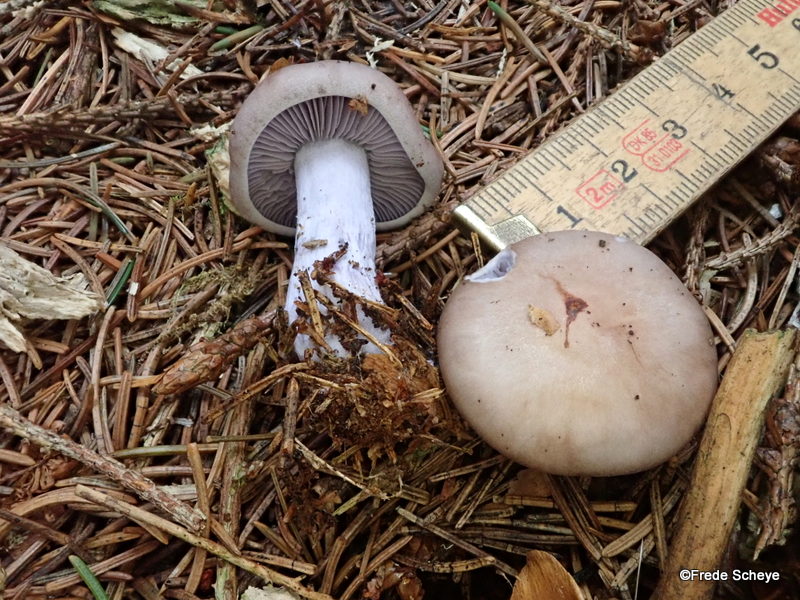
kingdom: Fungi
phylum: Basidiomycota
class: Agaricomycetes
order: Agaricales
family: Tricholomataceae
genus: Lepista
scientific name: Lepista nuda
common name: violet hekseringshat
